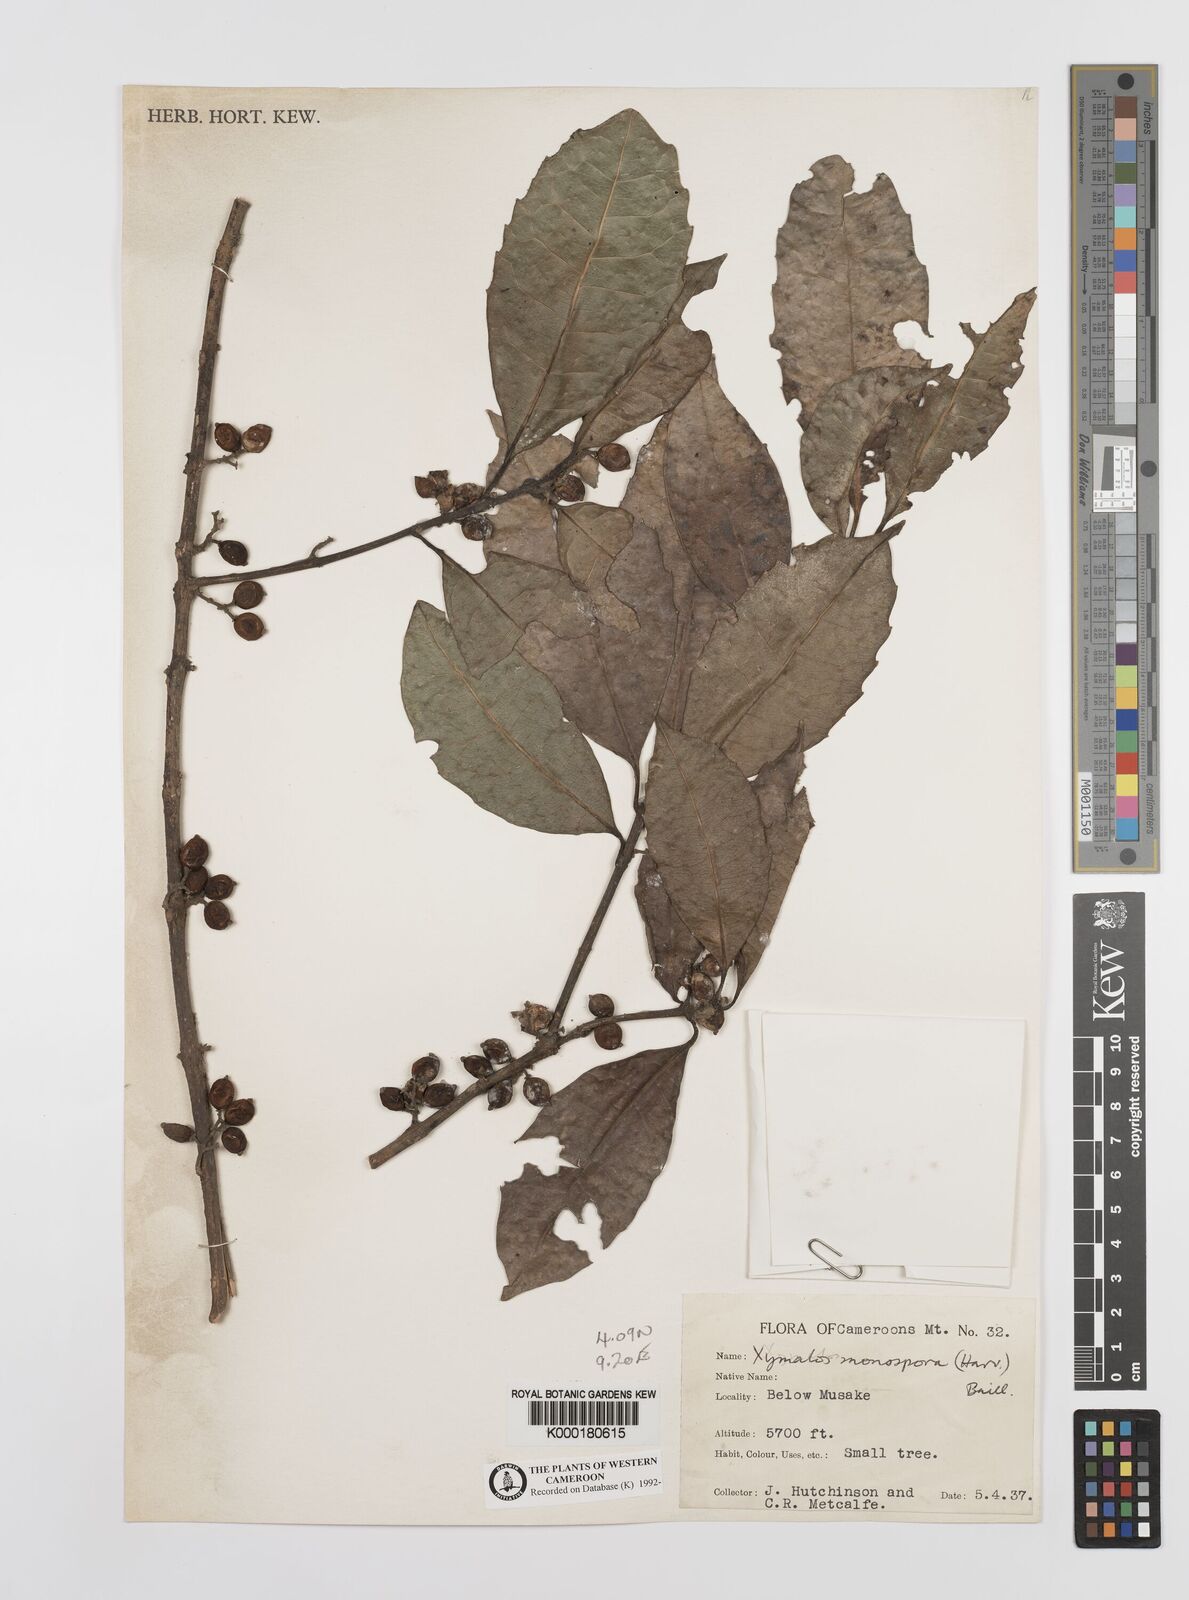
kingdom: Plantae
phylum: Tracheophyta
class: Magnoliopsida
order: Laurales
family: Monimiaceae
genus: Xymalos
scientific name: Xymalos
